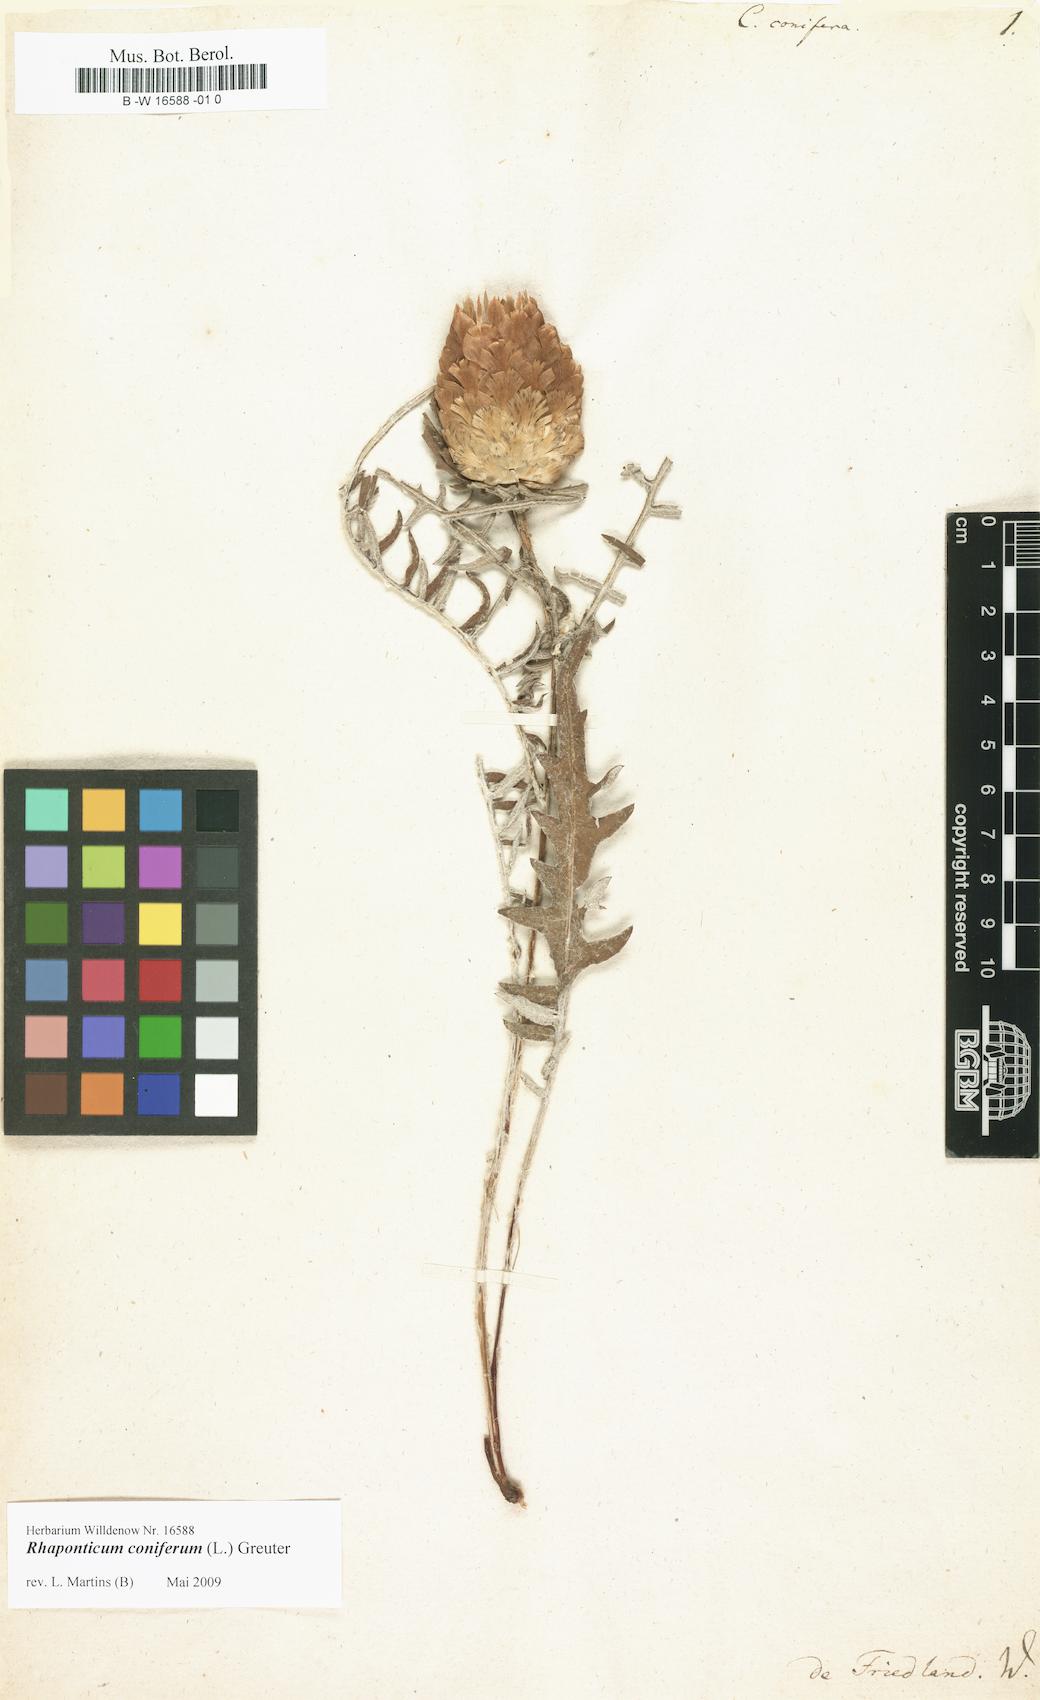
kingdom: Plantae
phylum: Tracheophyta
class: Magnoliopsida
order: Asterales
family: Asteraceae
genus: Leuzea
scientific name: Leuzea conifera
